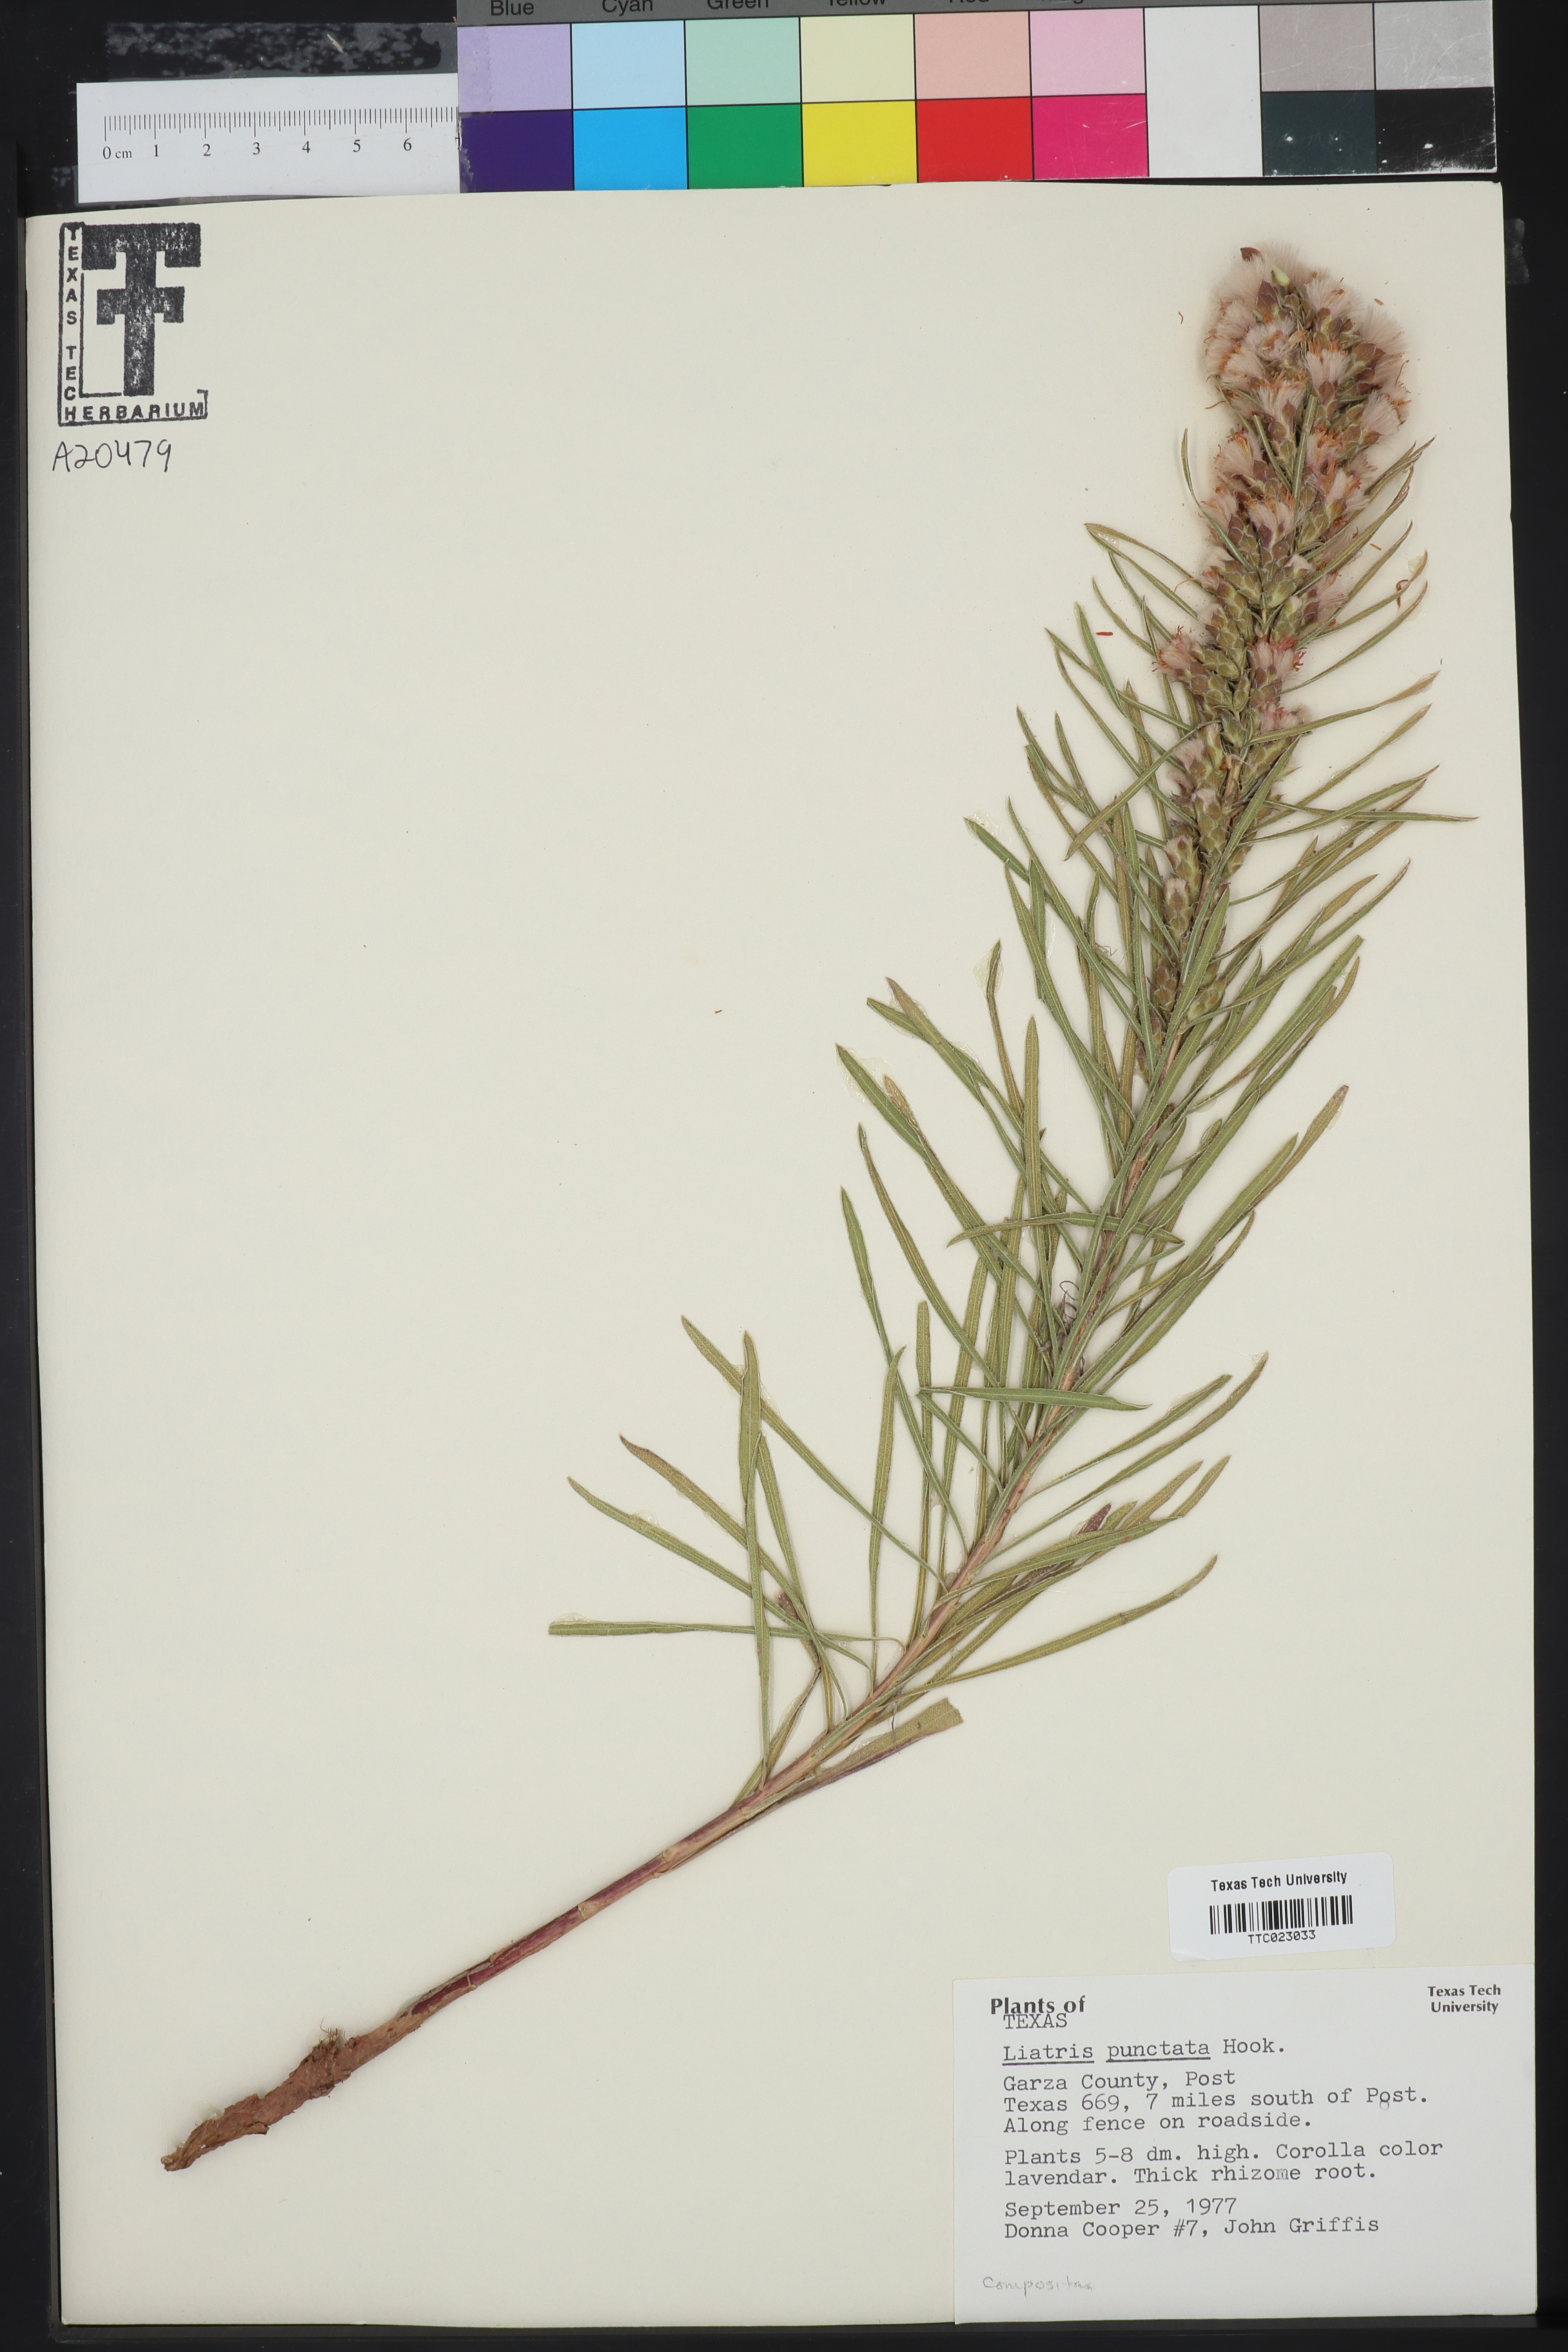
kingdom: Plantae
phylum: Tracheophyta
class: Magnoliopsida
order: Asterales
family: Asteraceae
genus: Liatris
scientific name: Liatris punctata
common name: Dotted gayfeather
